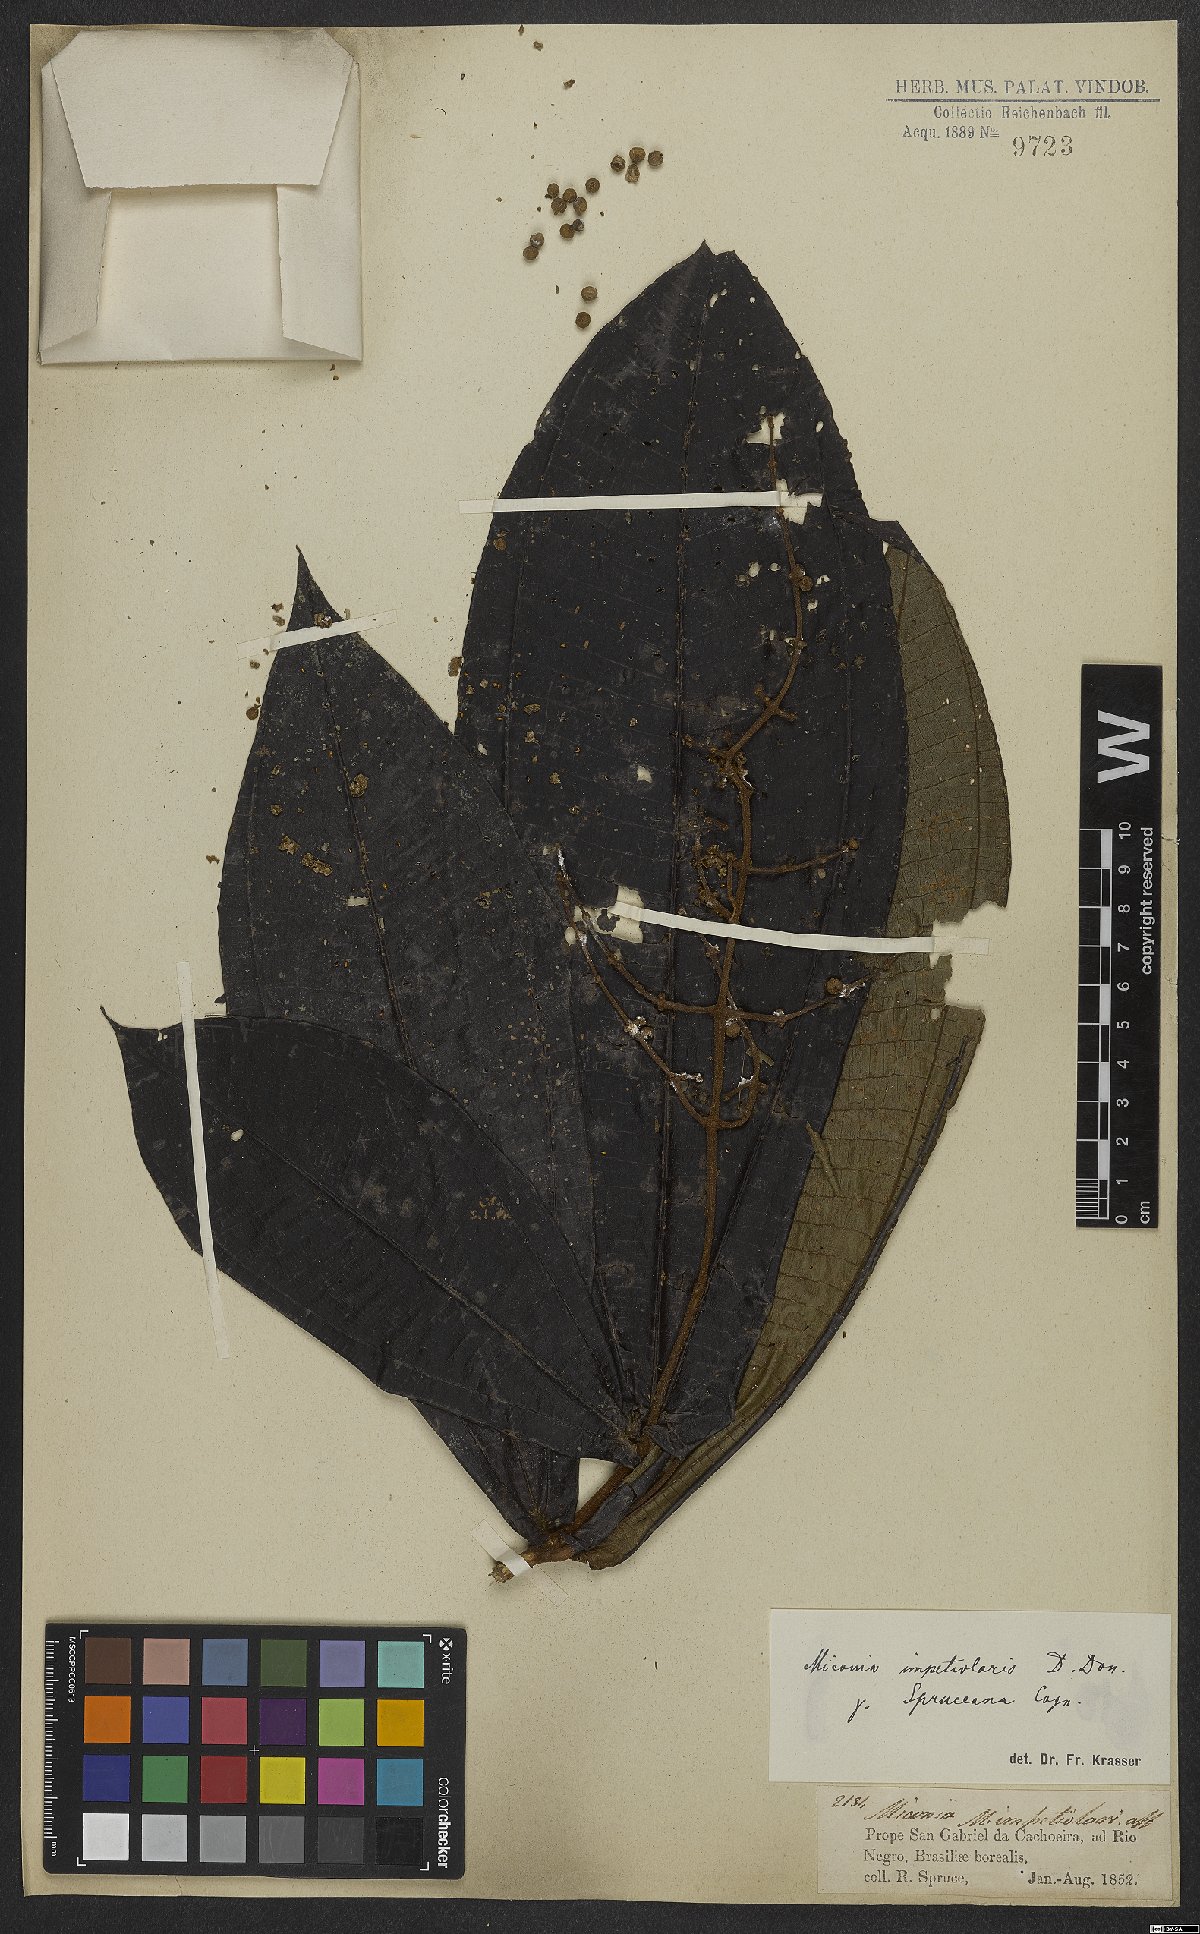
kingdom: Plantae
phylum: Tracheophyta
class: Magnoliopsida
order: Myrtales
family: Melastomataceae
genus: Miconia
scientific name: Miconia impetiolaris
